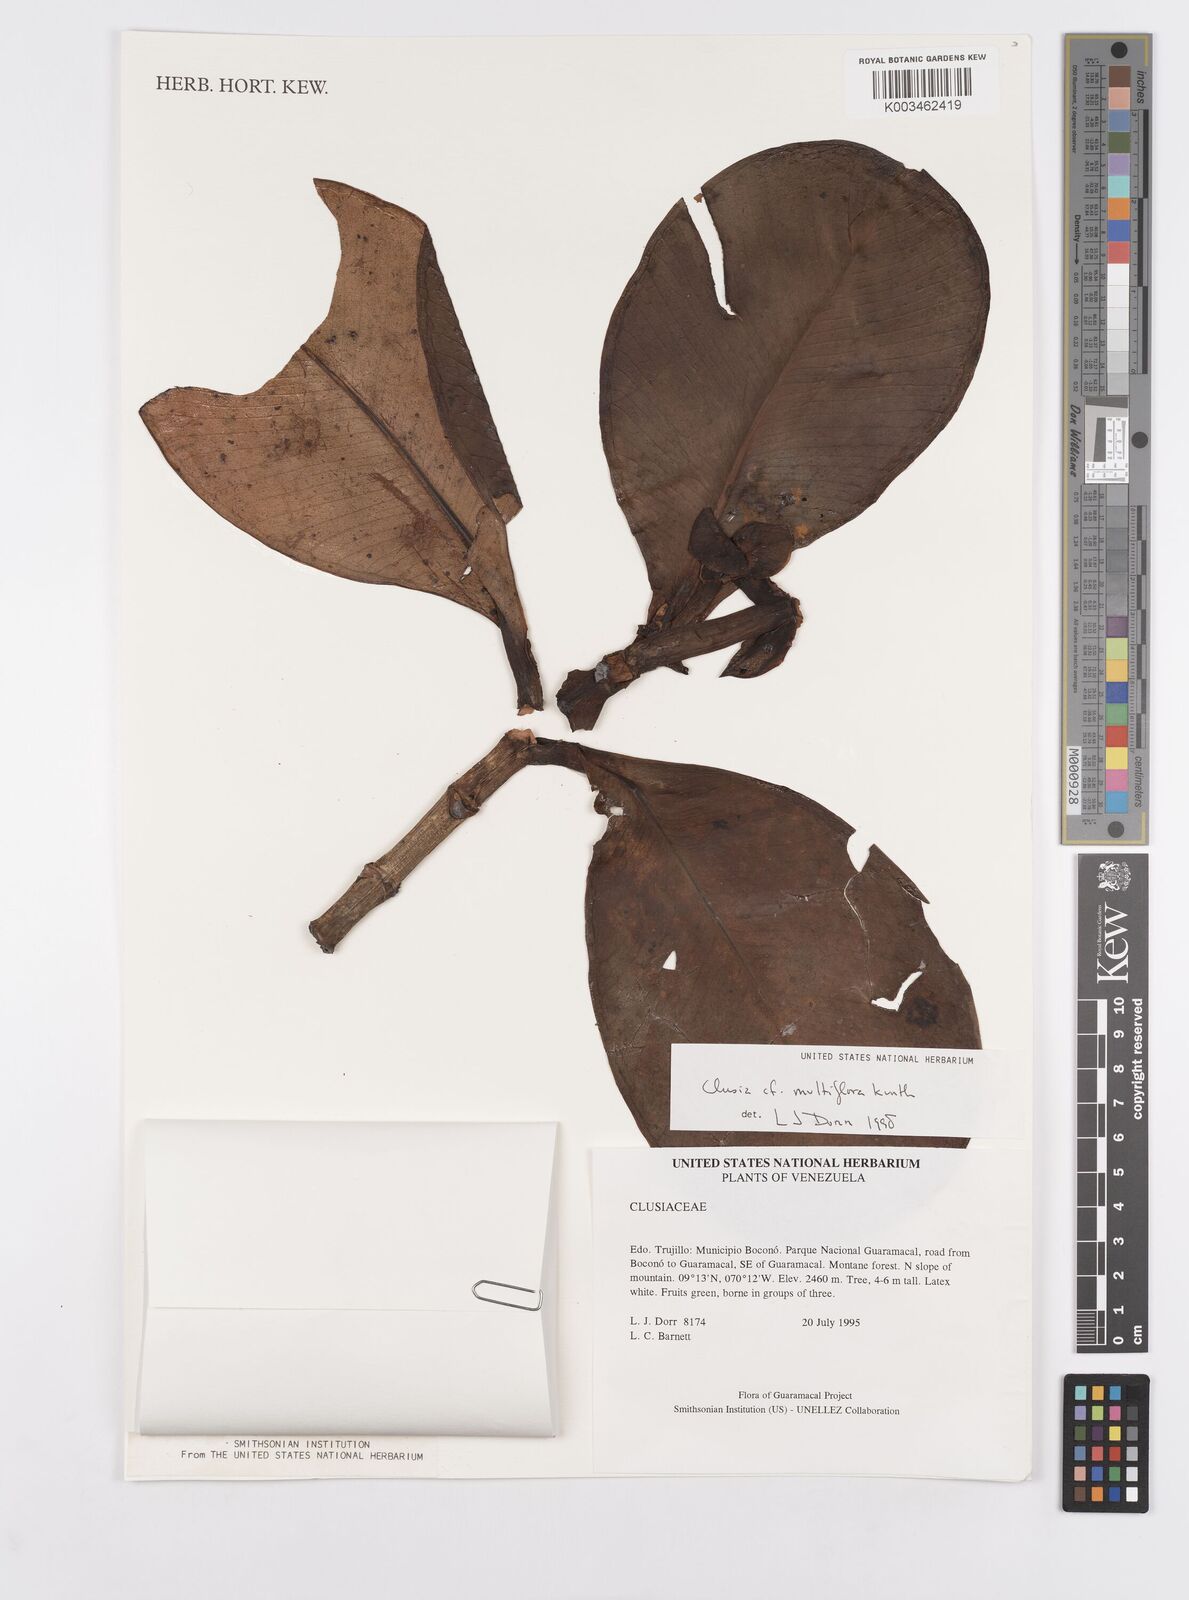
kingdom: Plantae
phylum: Tracheophyta
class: Magnoliopsida
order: Malpighiales
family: Clusiaceae
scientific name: Clusiaceae
